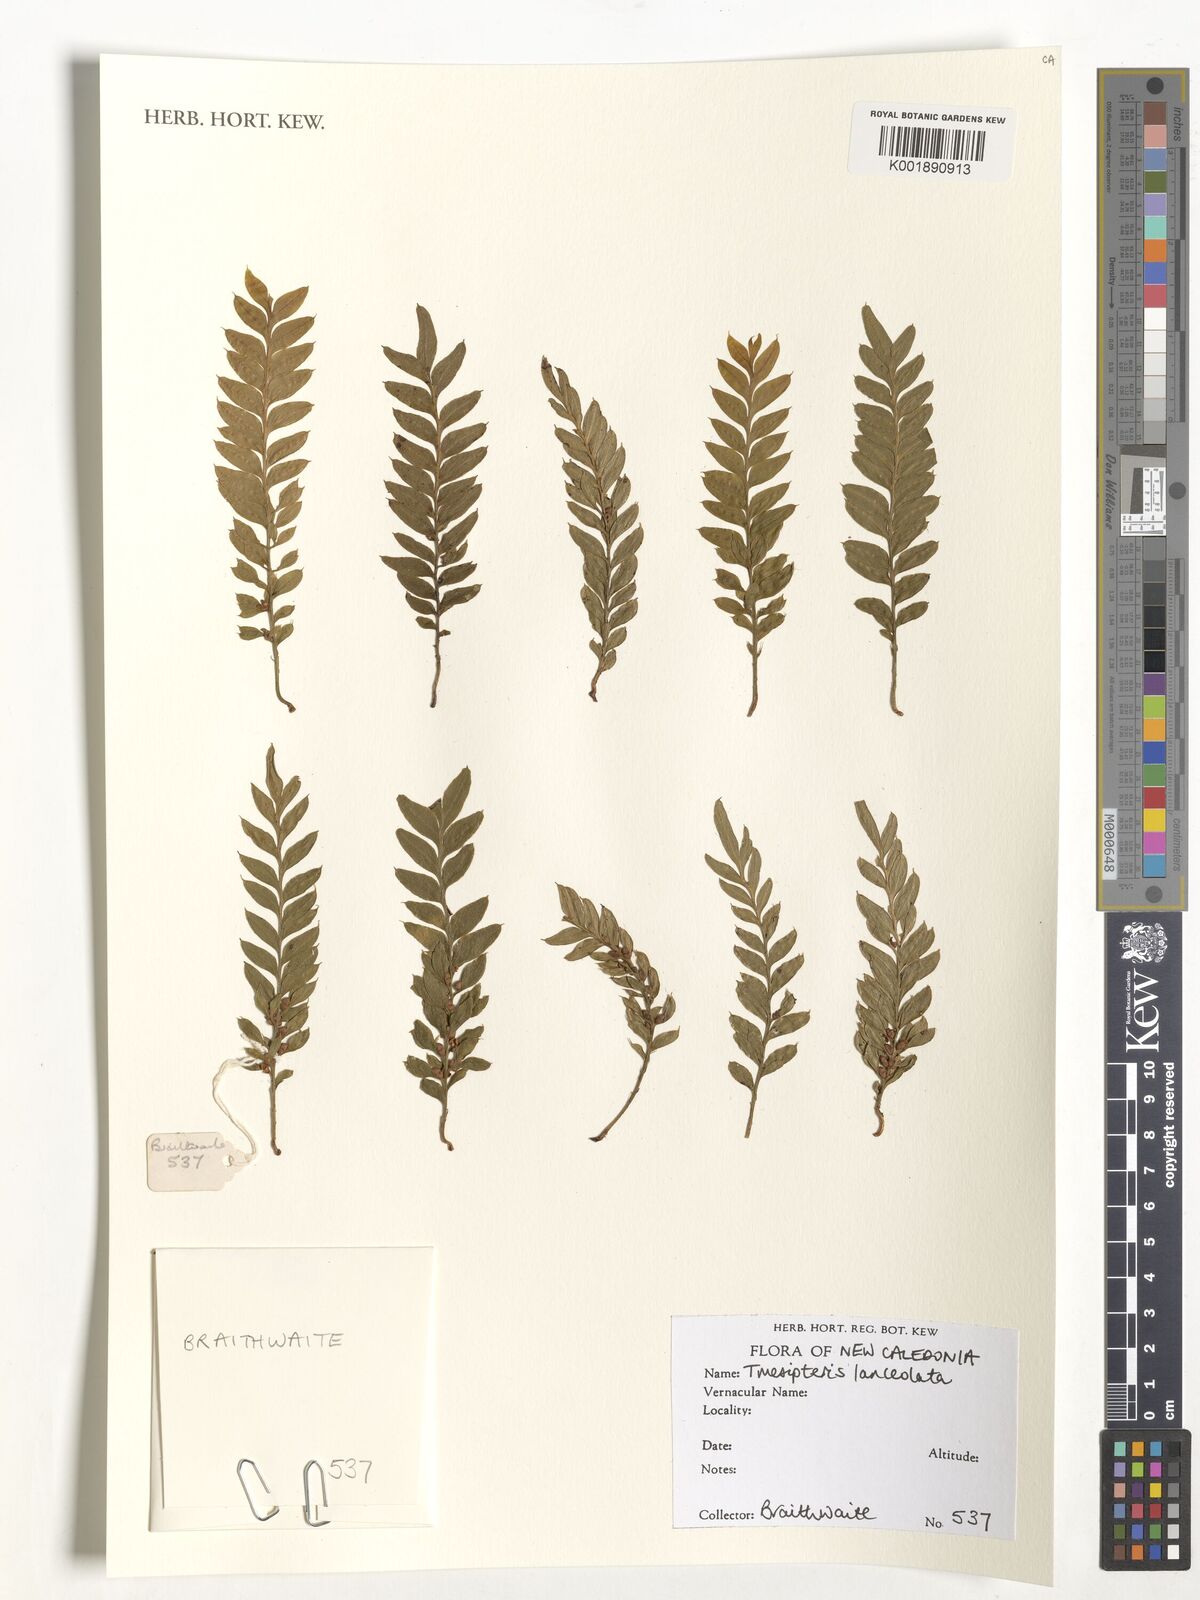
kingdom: Plantae
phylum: Tracheophyta
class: Polypodiopsida
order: Psilotales
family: Psilotaceae
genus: Tmesipteris
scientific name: Tmesipteris lanceolata
